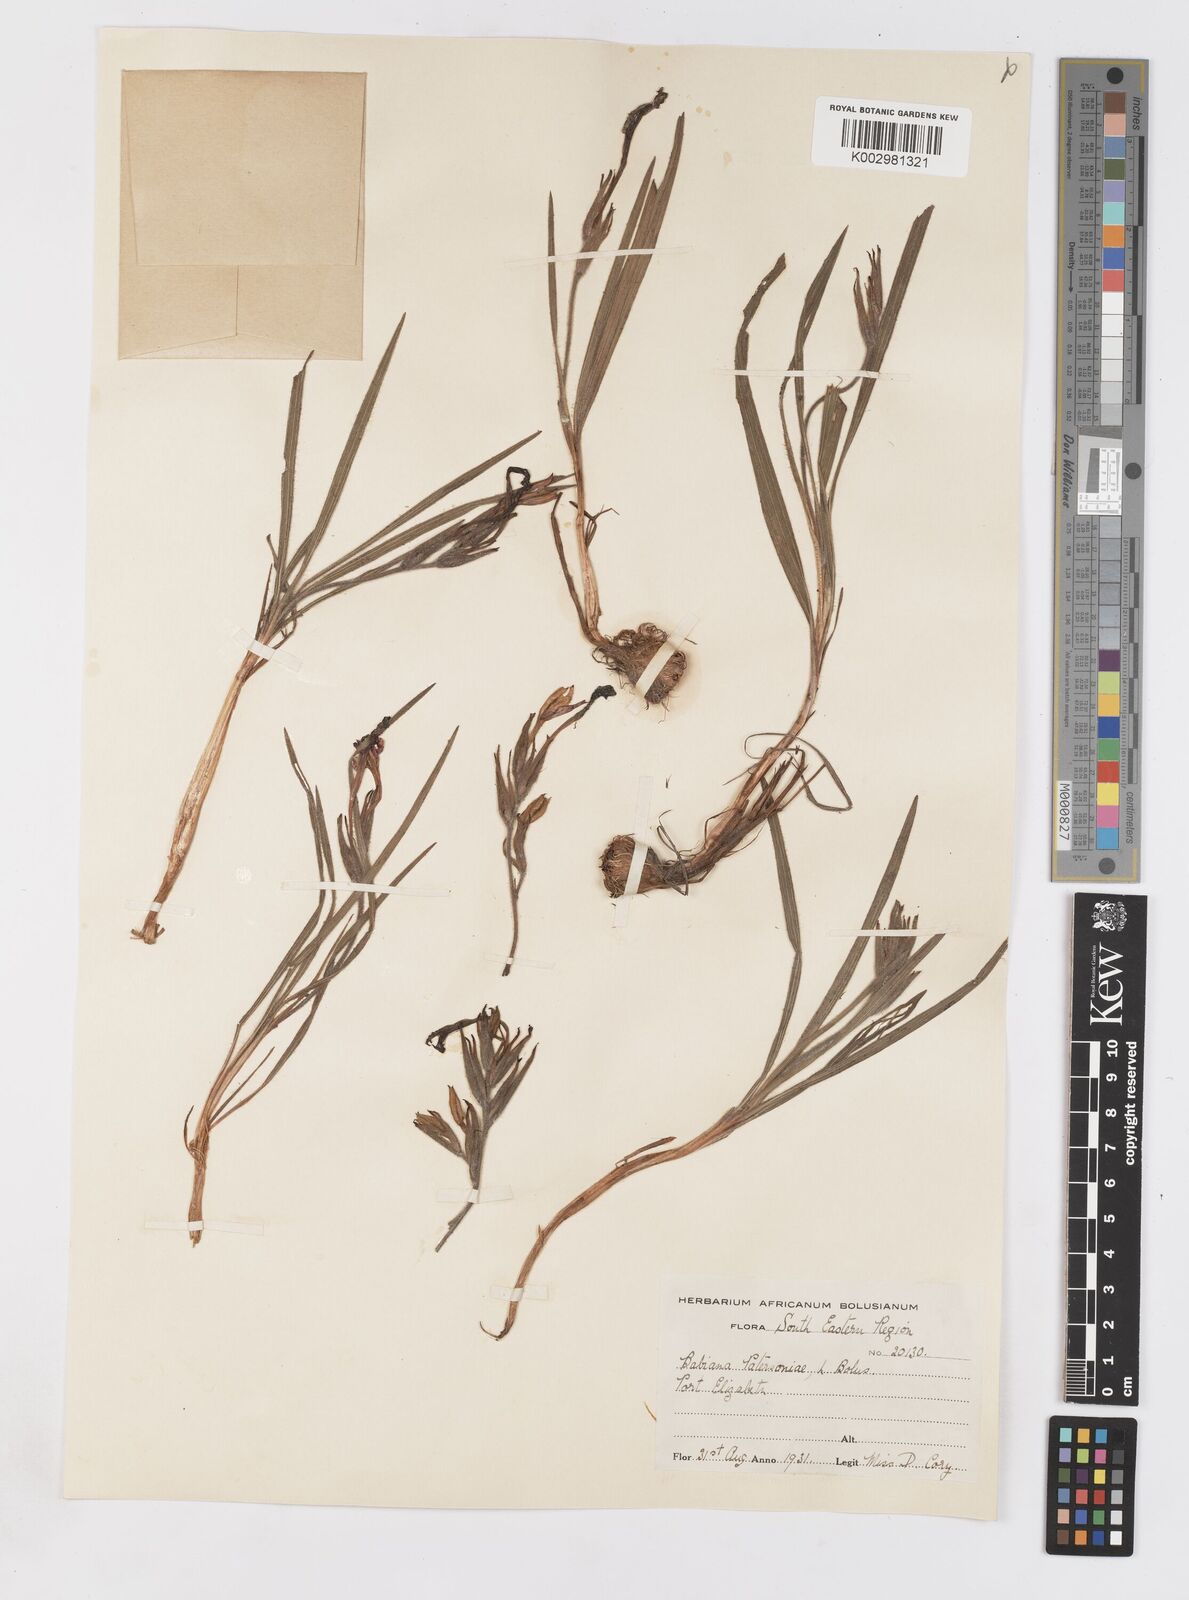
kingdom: Plantae
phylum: Tracheophyta
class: Liliopsida
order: Asparagales
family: Iridaceae
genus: Babiana
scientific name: Babiana patersoniae
